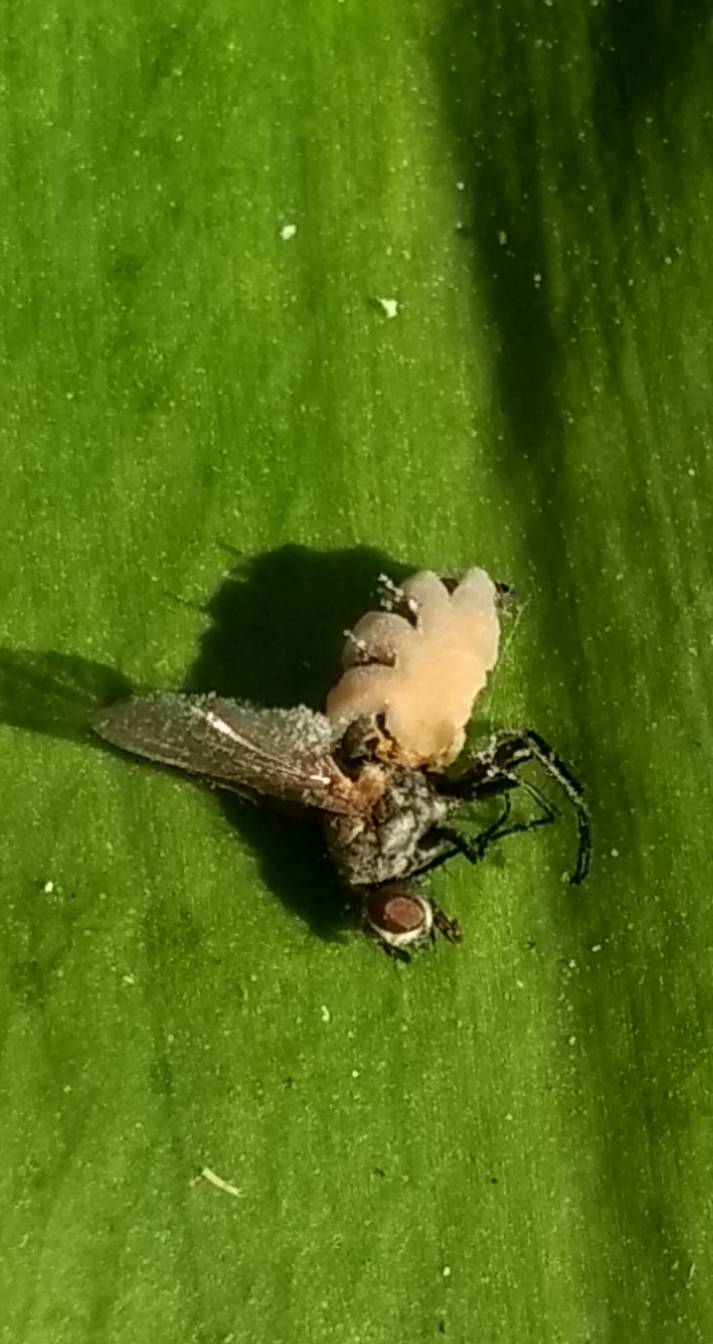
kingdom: Fungi
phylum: Entomophthoromycota
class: Entomophthoromycetes
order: Entomophthorales
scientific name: Entomophthorales
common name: flueskimmelordenen
